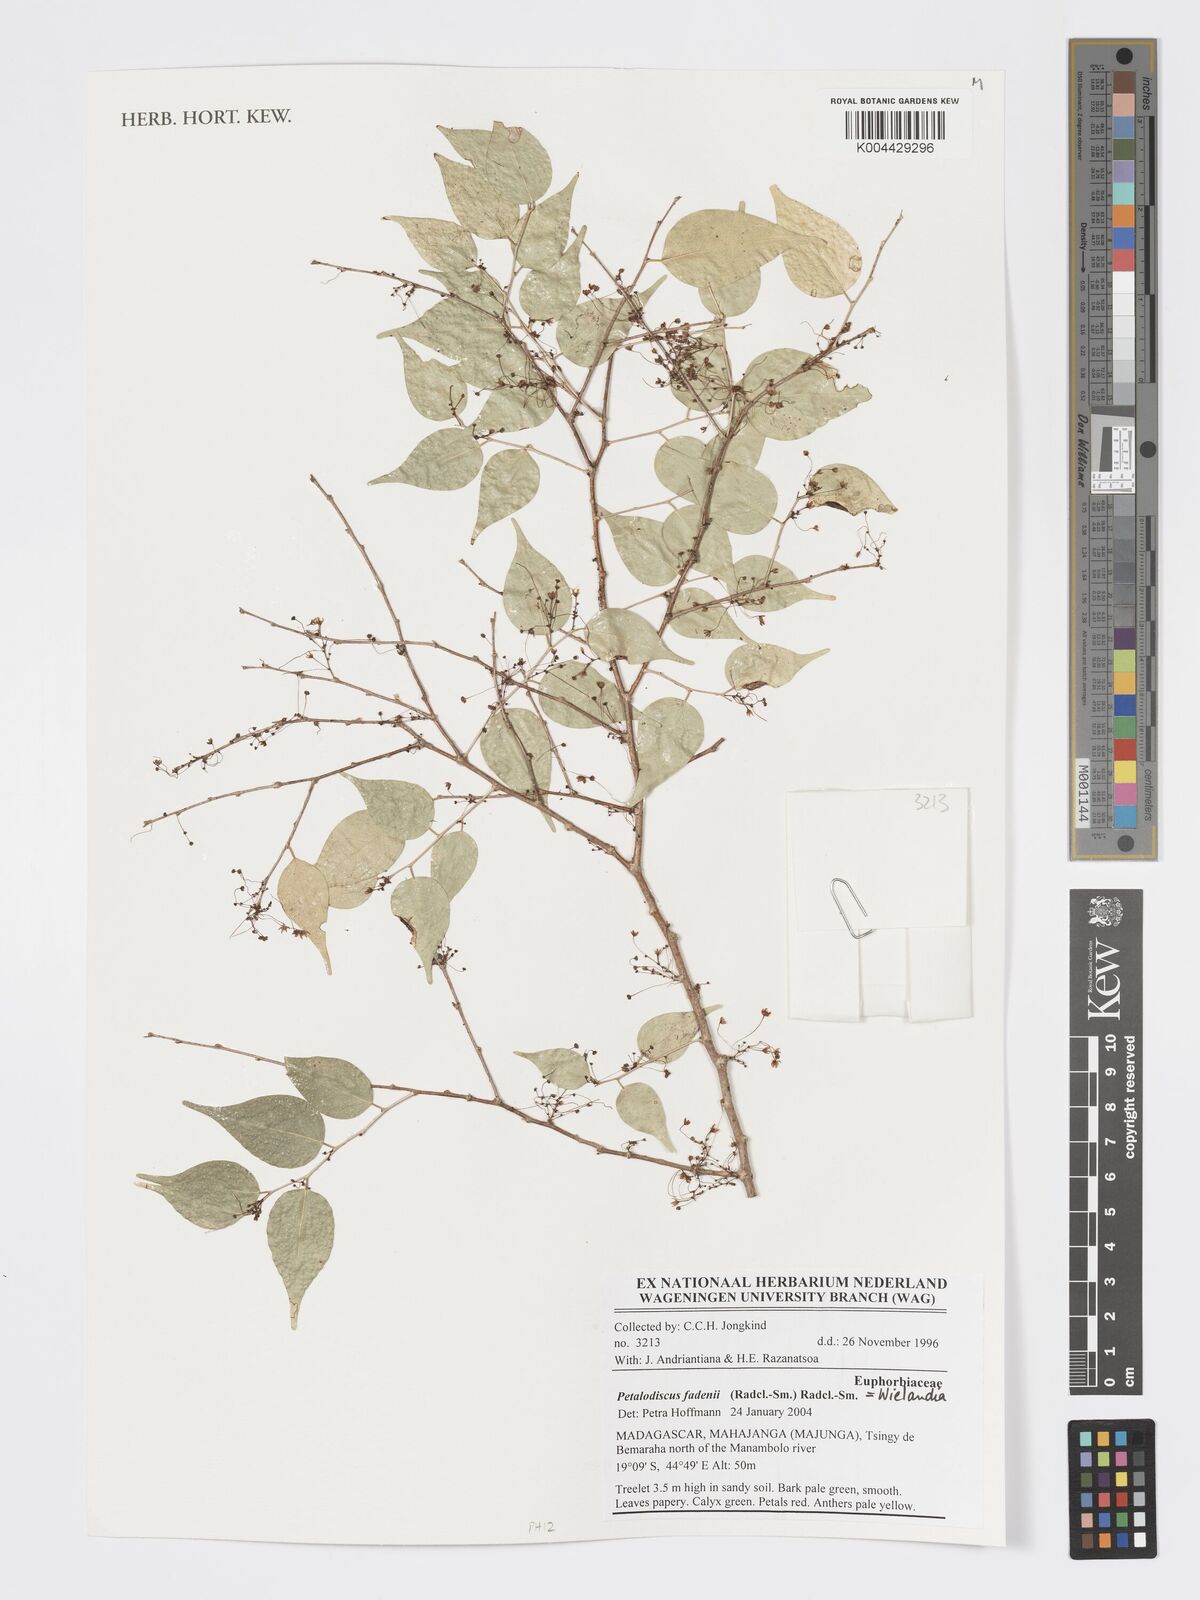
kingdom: Plantae
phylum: Tracheophyta
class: Magnoliopsida
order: Malpighiales
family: Phyllanthaceae
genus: Wielandia
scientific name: Wielandia fadenii
